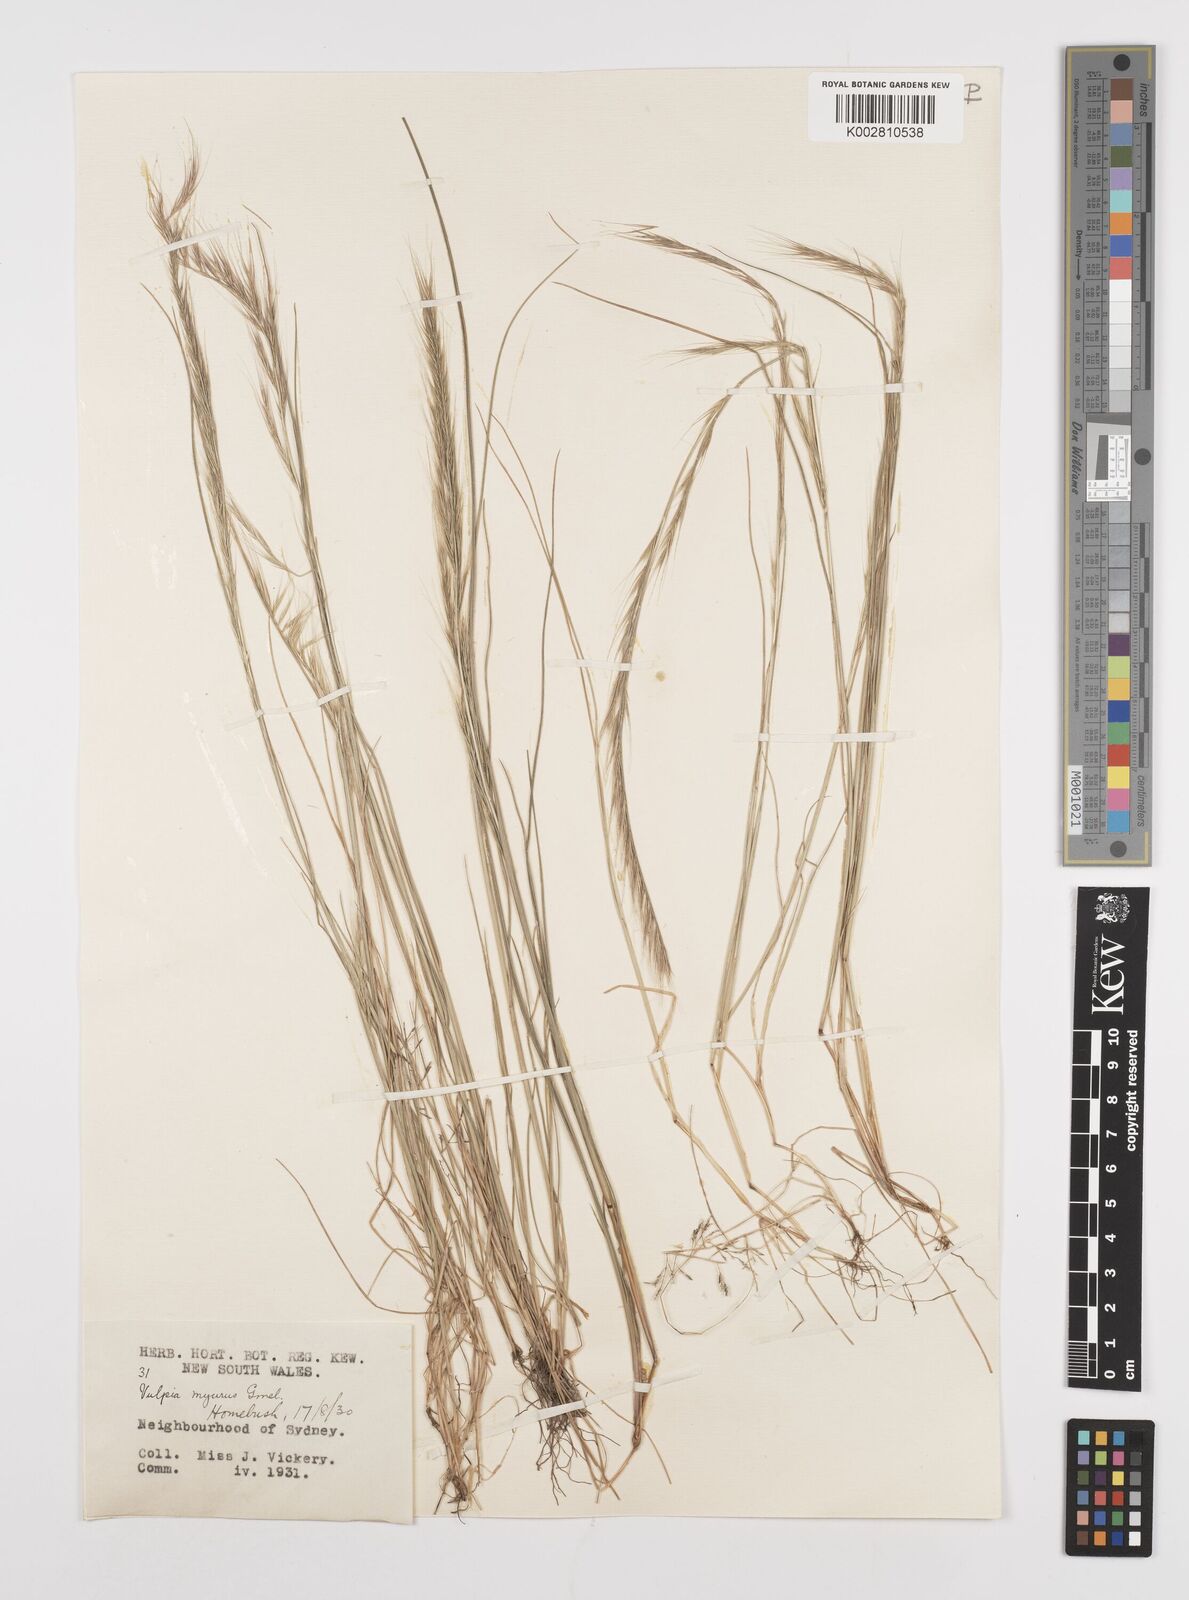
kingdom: Plantae
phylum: Tracheophyta
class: Liliopsida
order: Poales
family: Poaceae
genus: Festuca
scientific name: Festuca myuros
